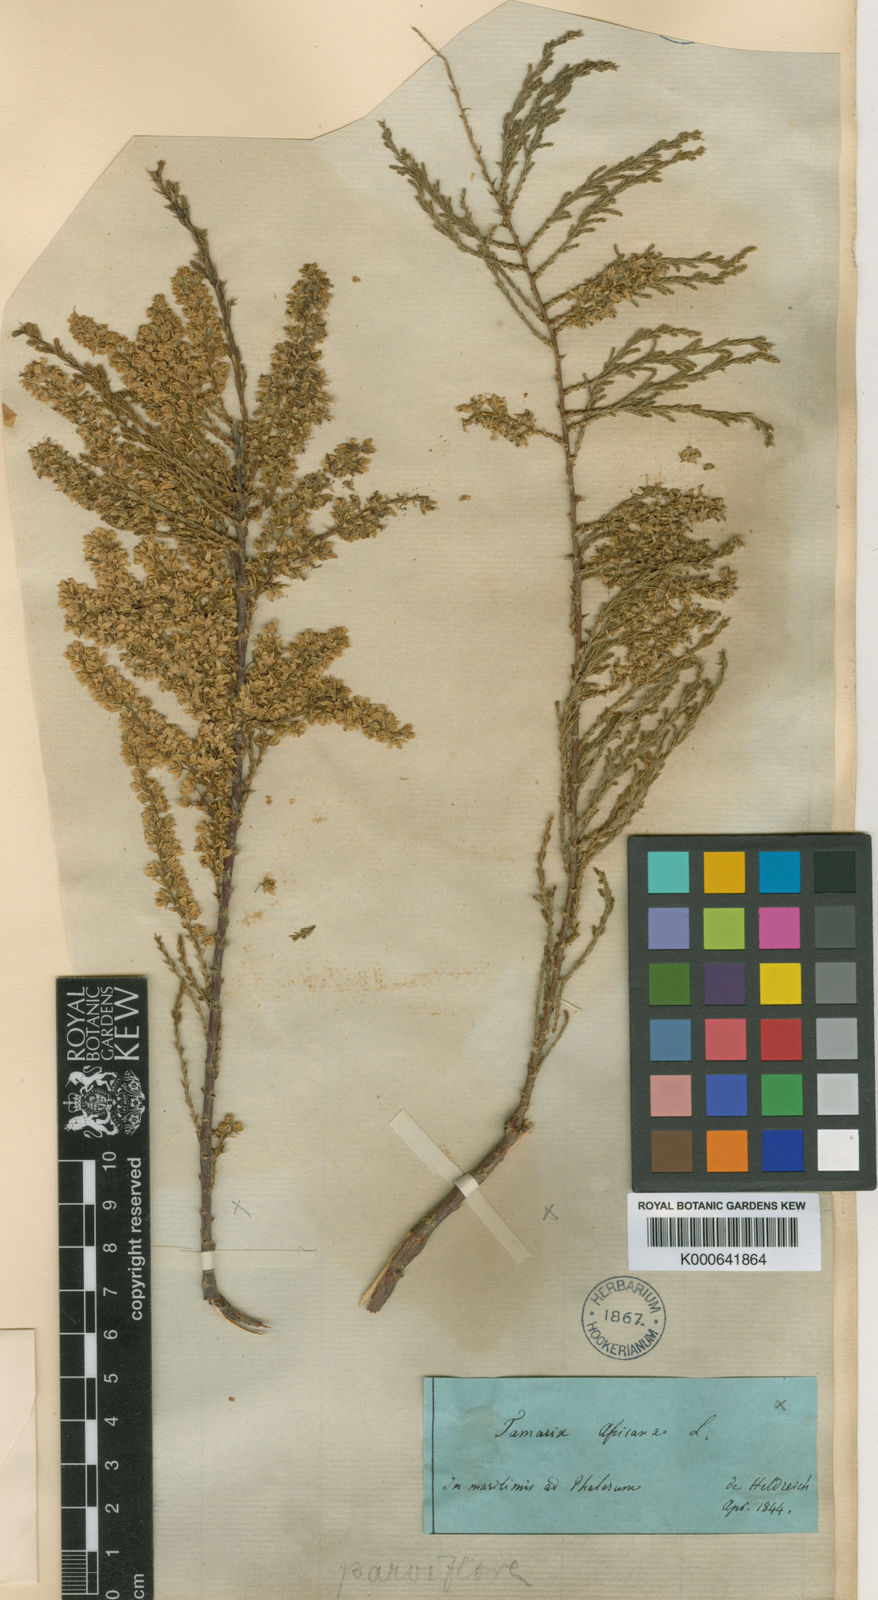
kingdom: Plantae
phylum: Tracheophyta
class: Magnoliopsida
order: Caryophyllales
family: Tamaricaceae
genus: Tamarix
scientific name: Tamarix hampeana
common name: Hampe’s tamarisk
